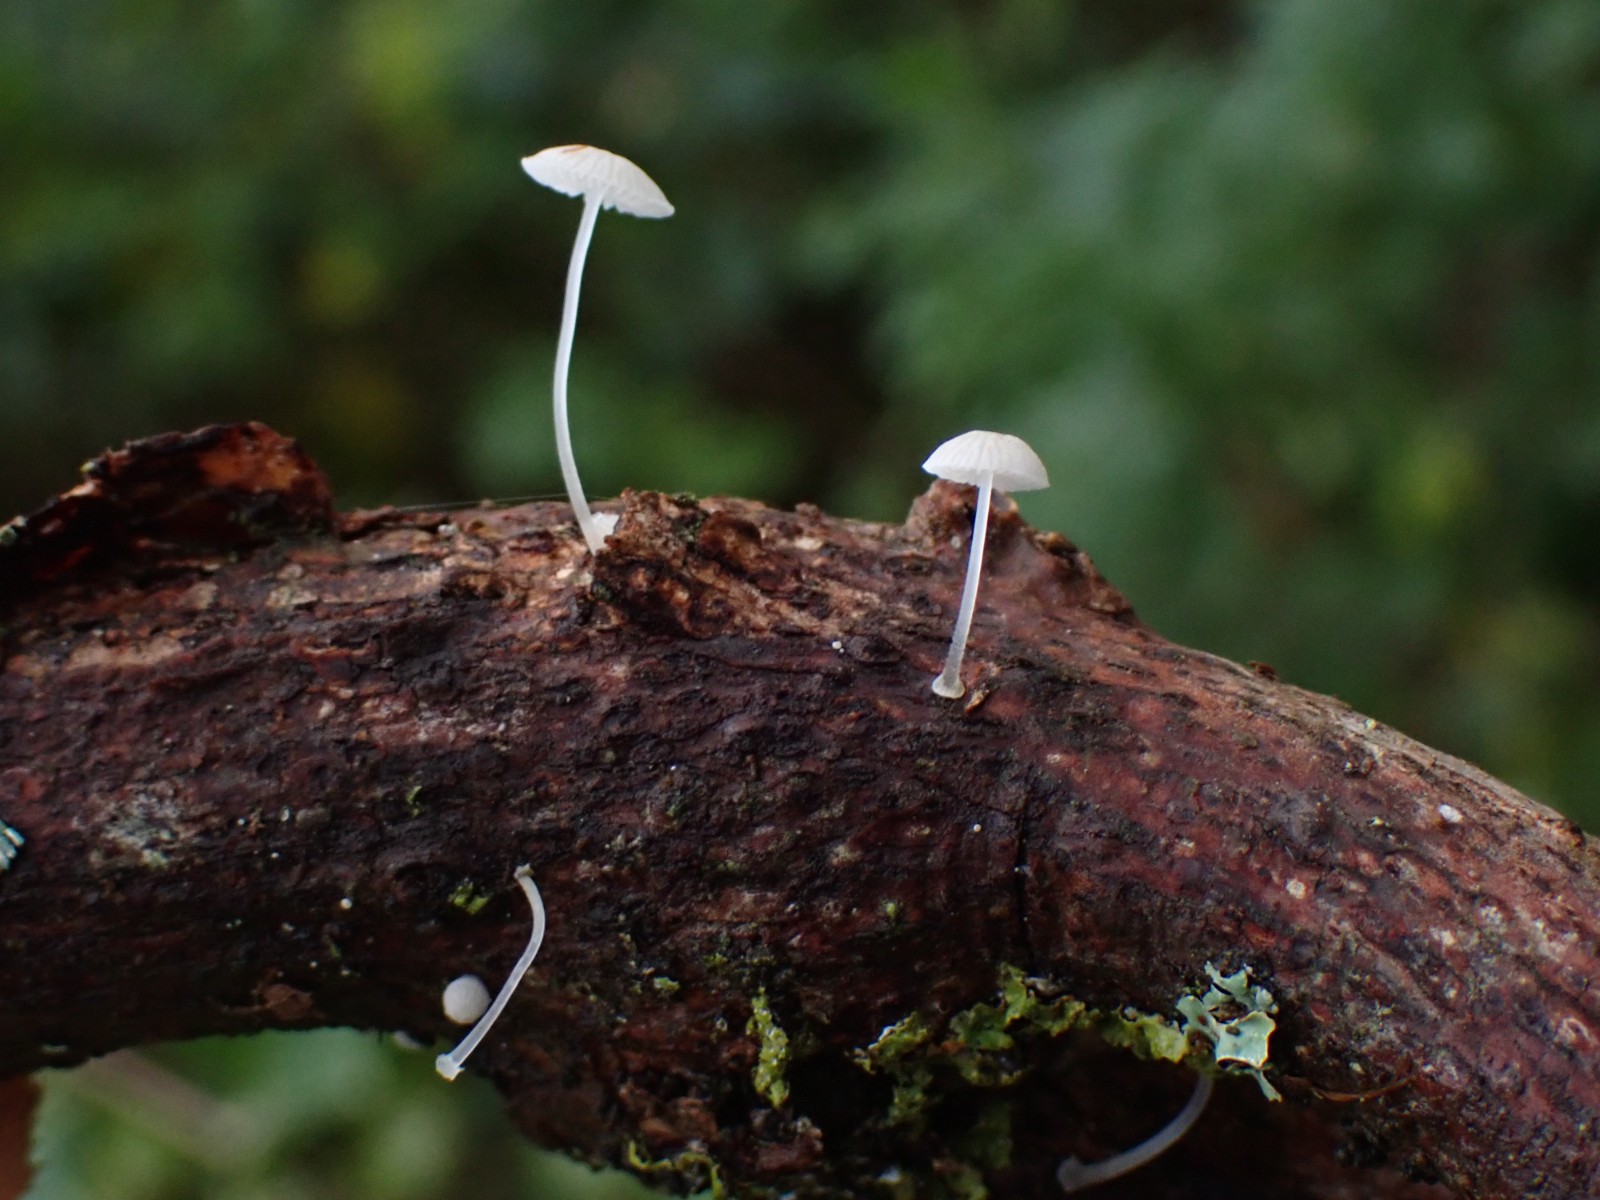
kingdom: Fungi
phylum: Basidiomycota
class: Agaricomycetes
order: Agaricales
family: Mycenaceae
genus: Mycena
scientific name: Mycena tenerrima
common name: pudret huesvamp
